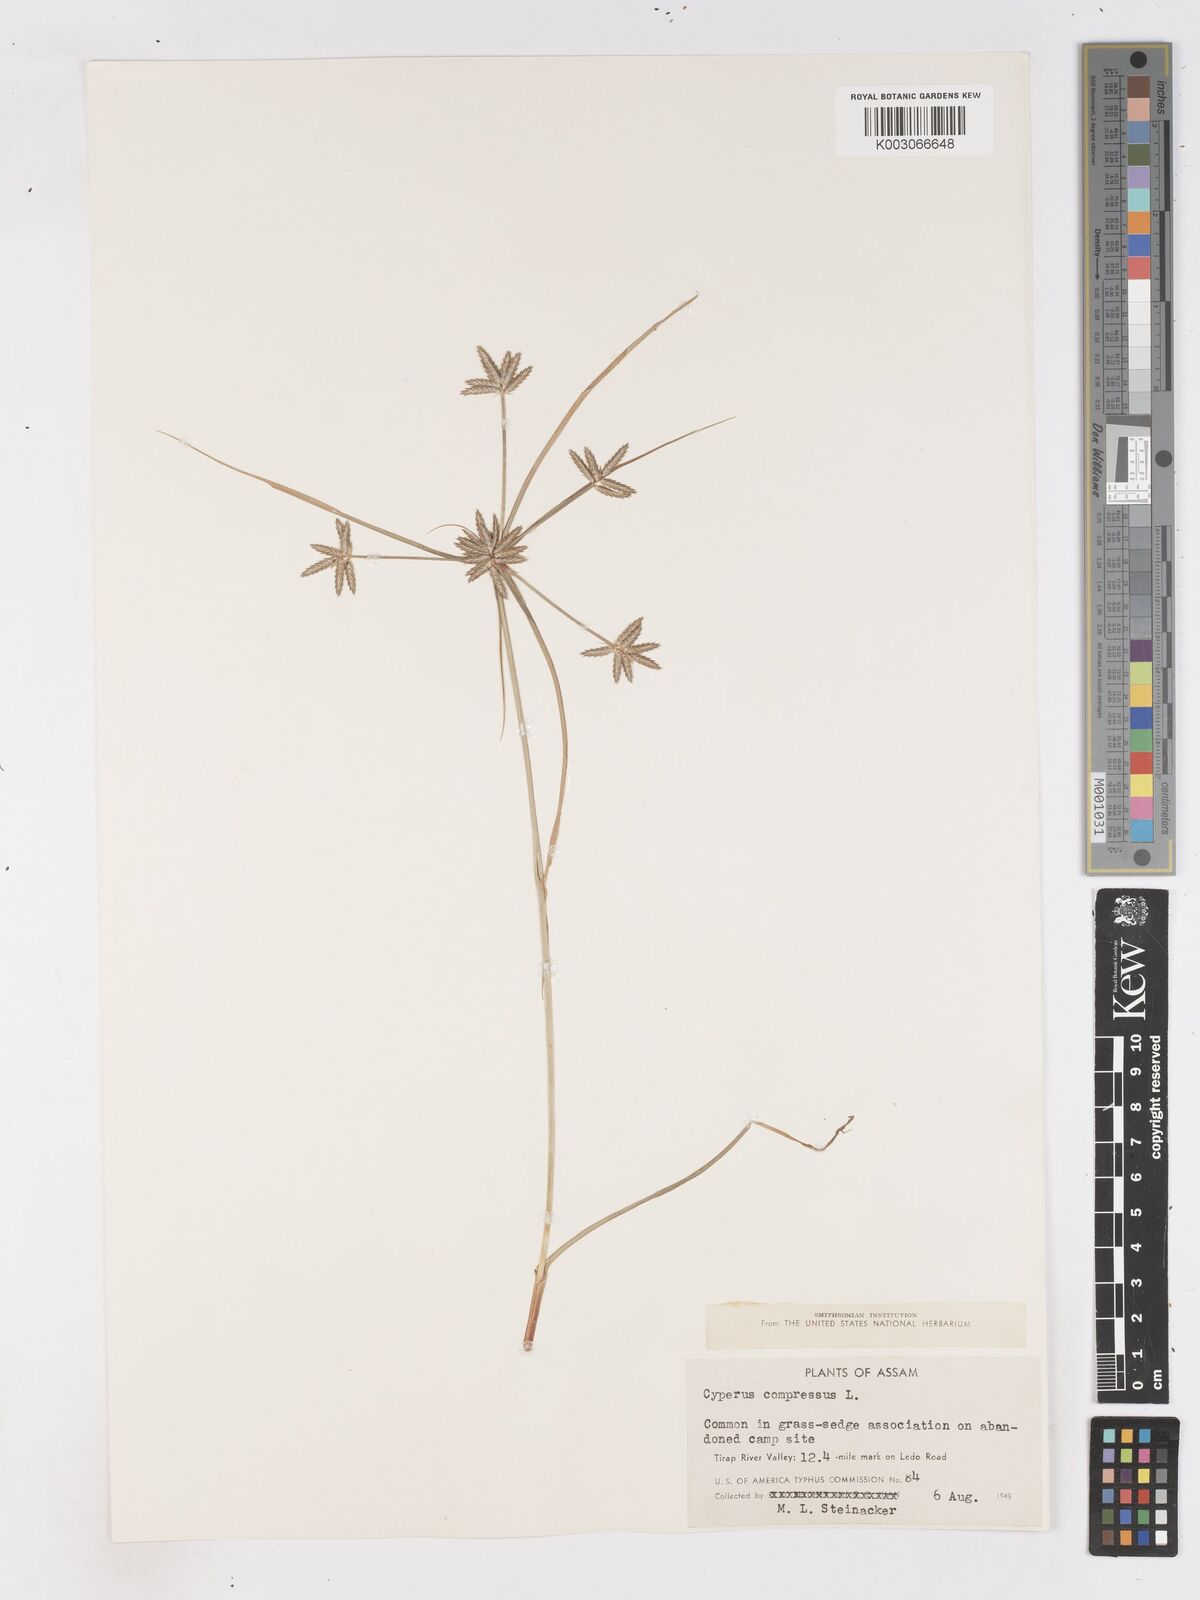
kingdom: Plantae
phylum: Tracheophyta
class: Liliopsida
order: Poales
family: Cyperaceae
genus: Cyperus
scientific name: Cyperus compressus
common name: Poorland flatsedge
